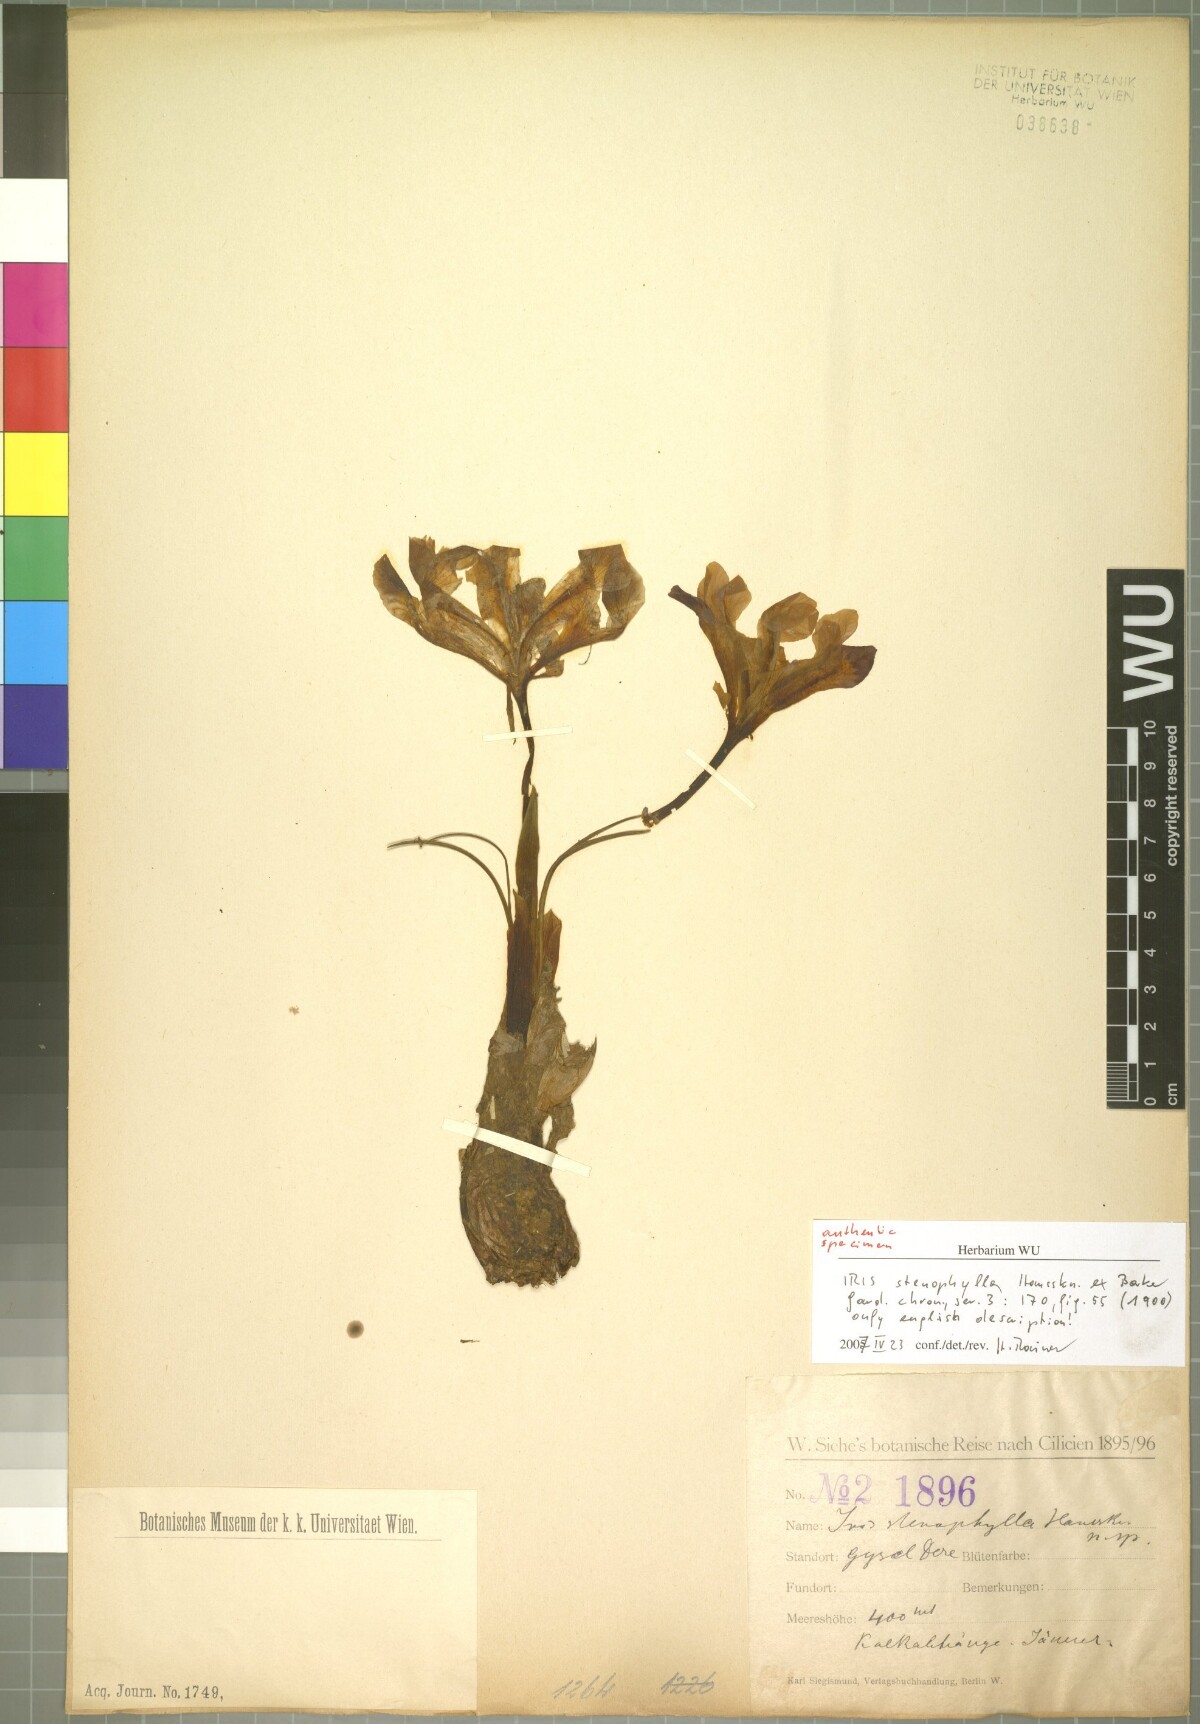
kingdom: Plantae
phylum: Tracheophyta
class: Liliopsida
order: Asparagales
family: Iridaceae
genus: Iris
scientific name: Iris stenophylla
